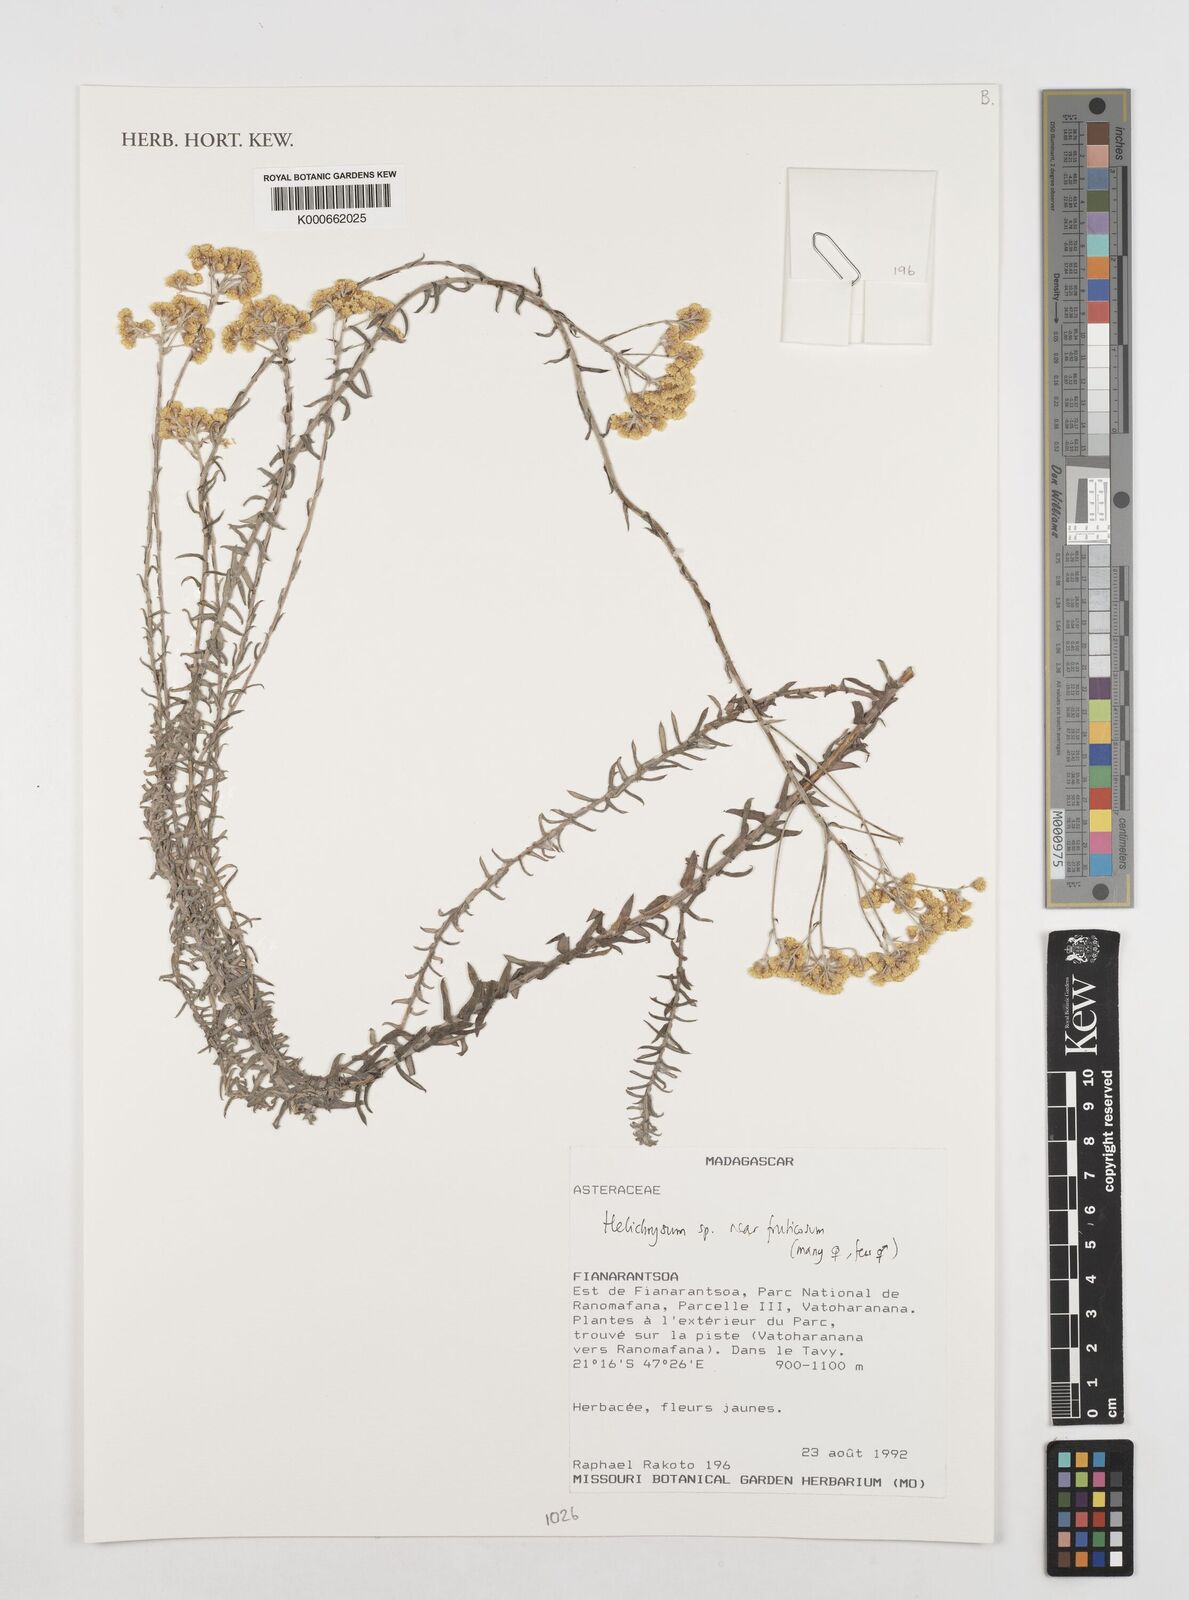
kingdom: Plantae
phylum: Tracheophyta
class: Magnoliopsida
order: Asterales
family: Asteraceae
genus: Helichrysum
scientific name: Helichrysum forskahlii
